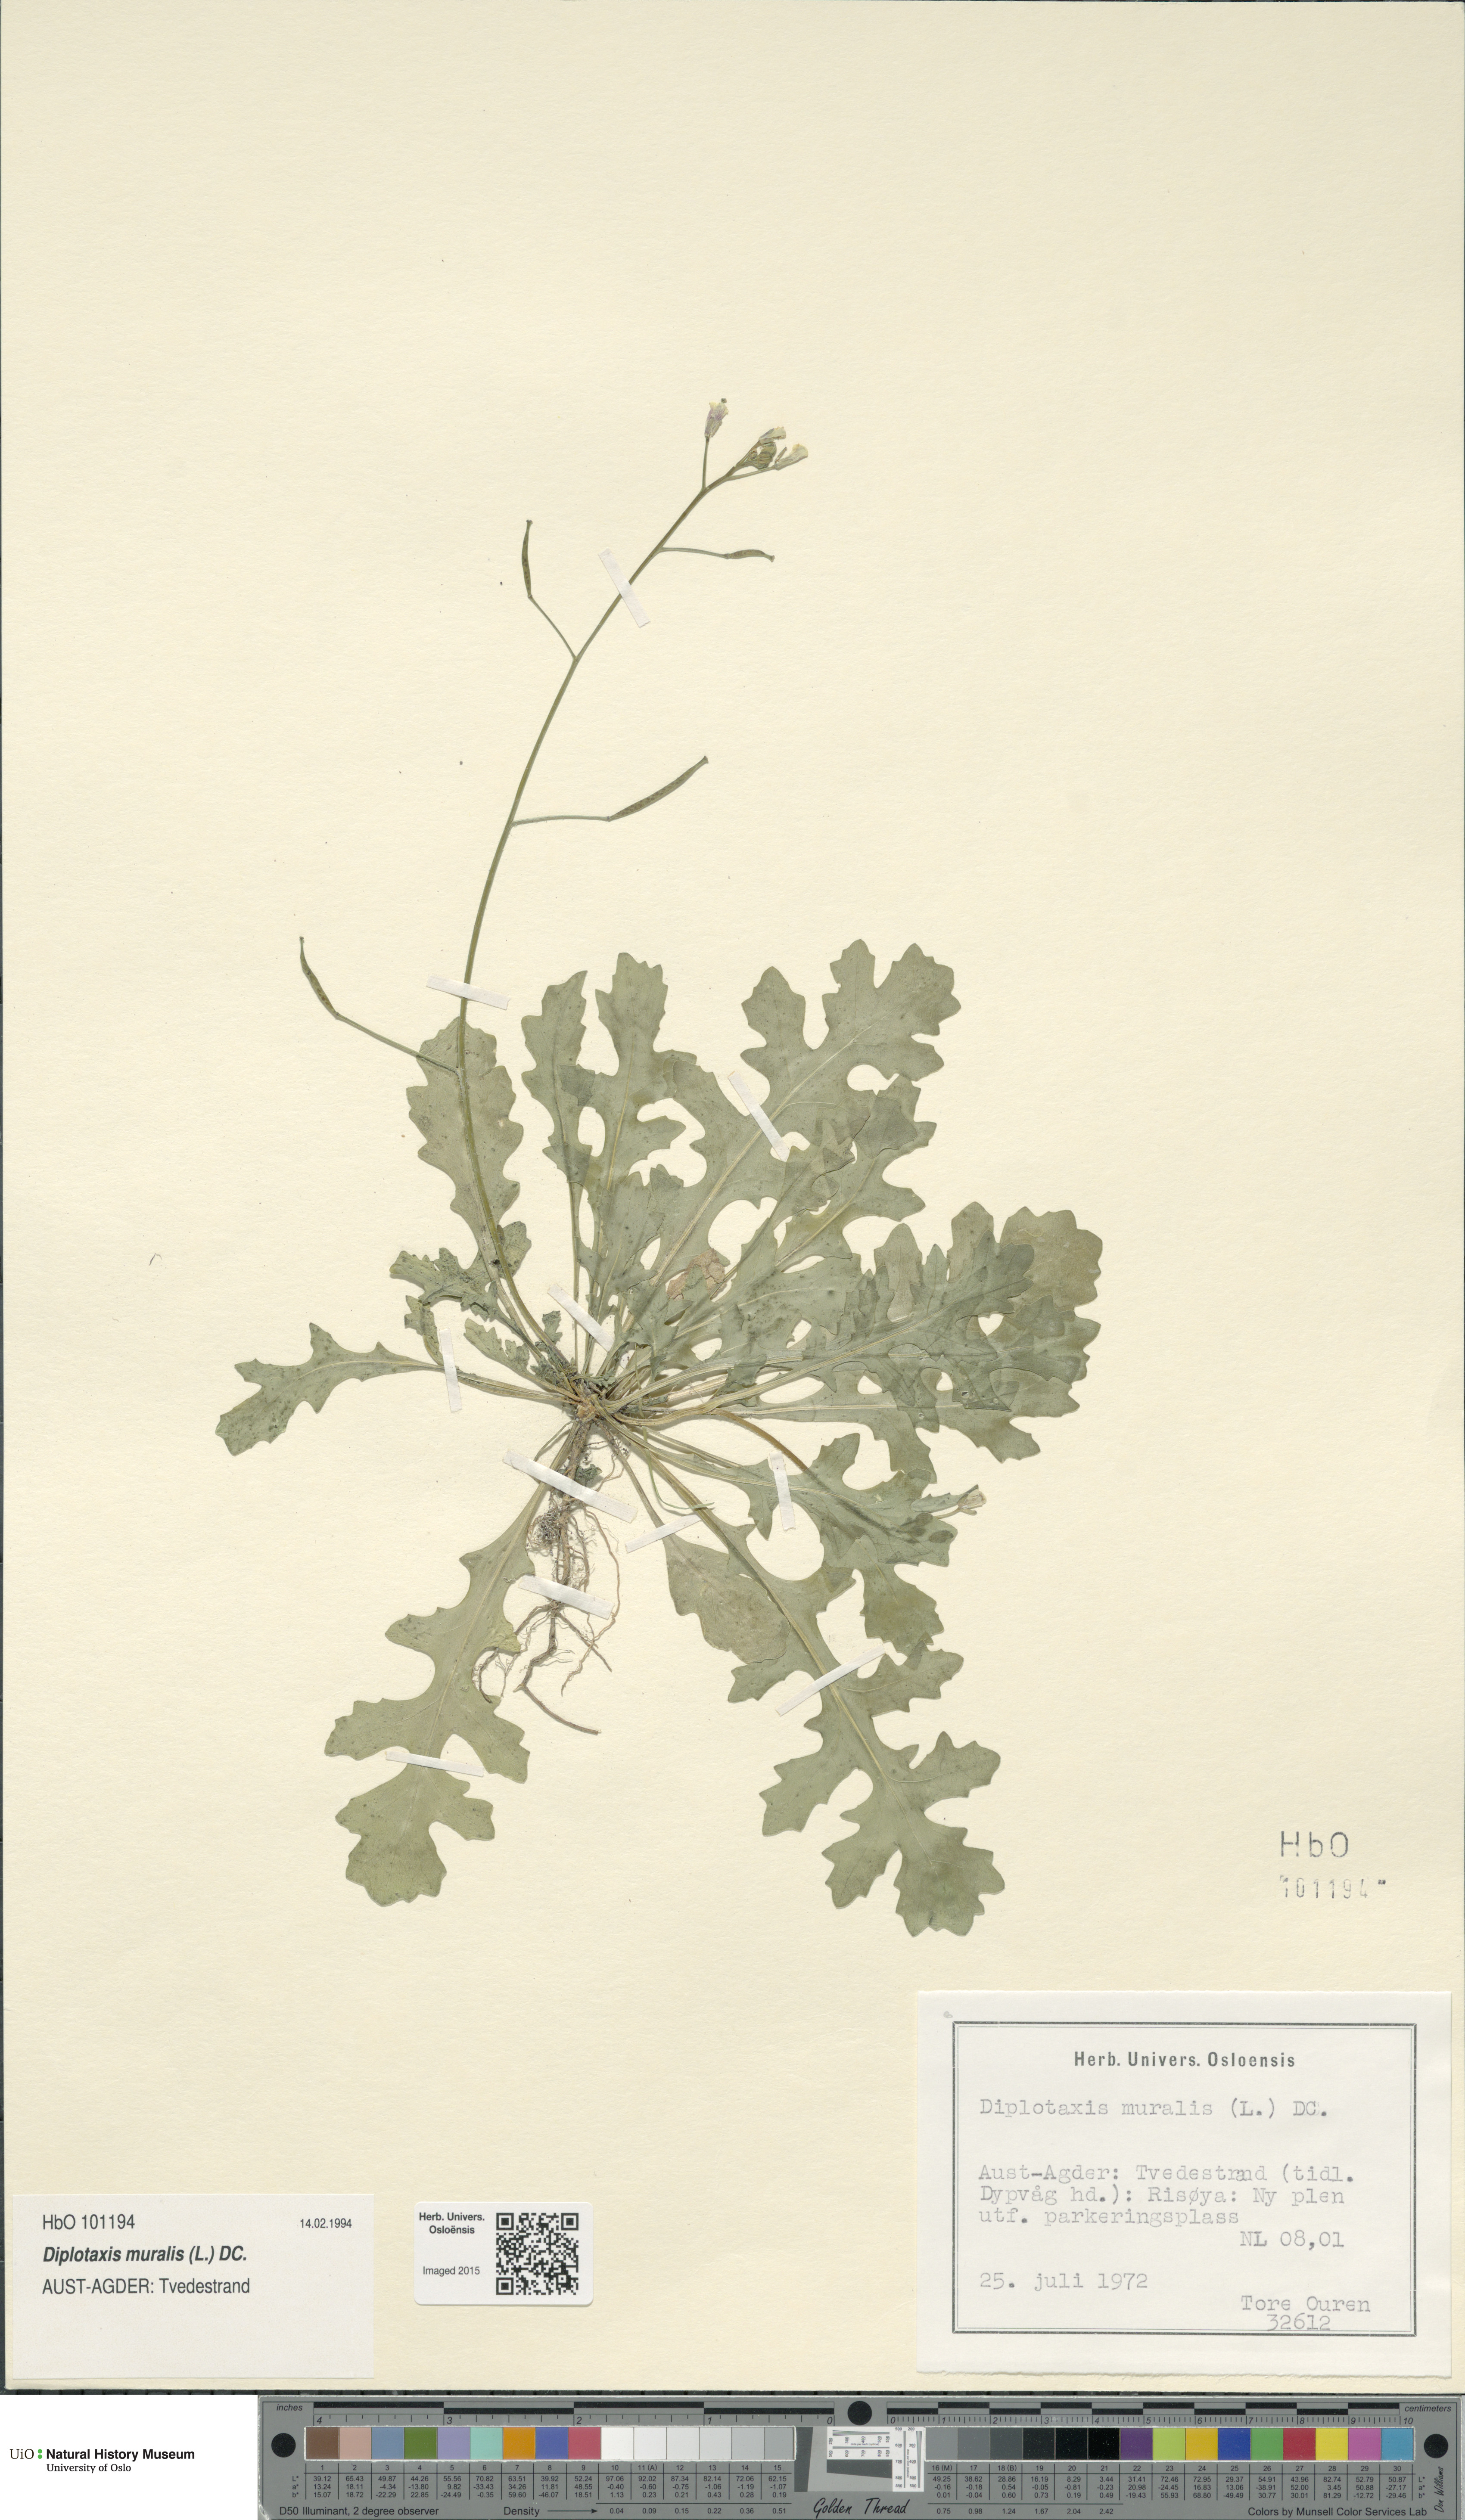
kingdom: Plantae
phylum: Tracheophyta
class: Magnoliopsida
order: Brassicales
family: Brassicaceae
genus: Diplotaxis
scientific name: Diplotaxis muralis
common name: Annual wall-rocket
